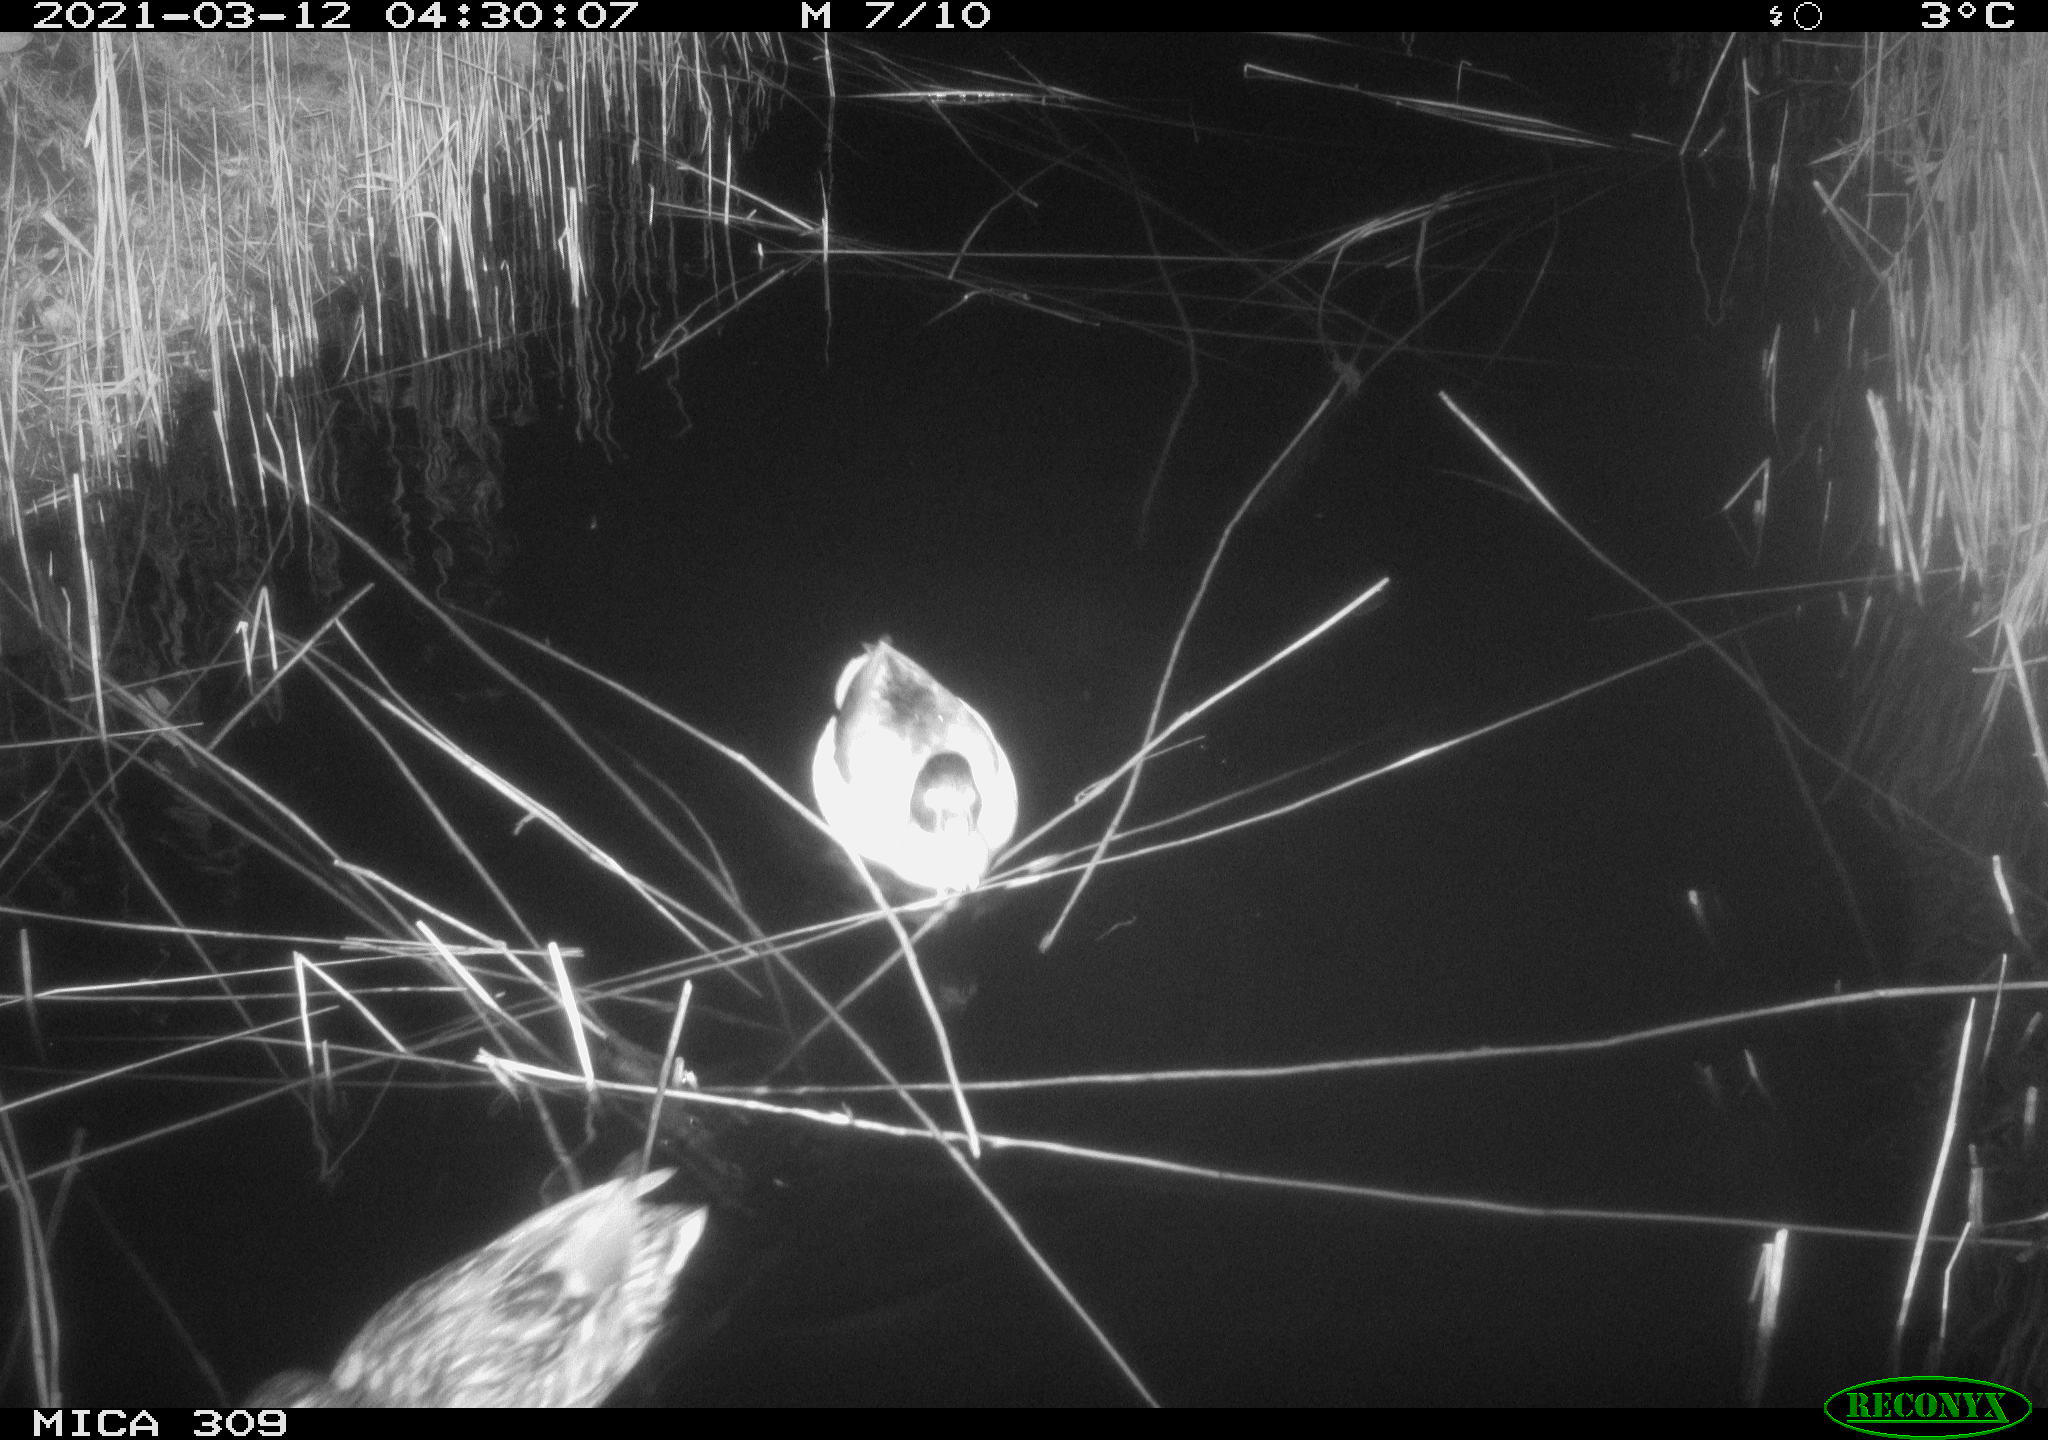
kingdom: Animalia
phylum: Chordata
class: Aves
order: Anseriformes
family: Anatidae
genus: Anas
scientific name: Anas platyrhynchos
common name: Mallard
